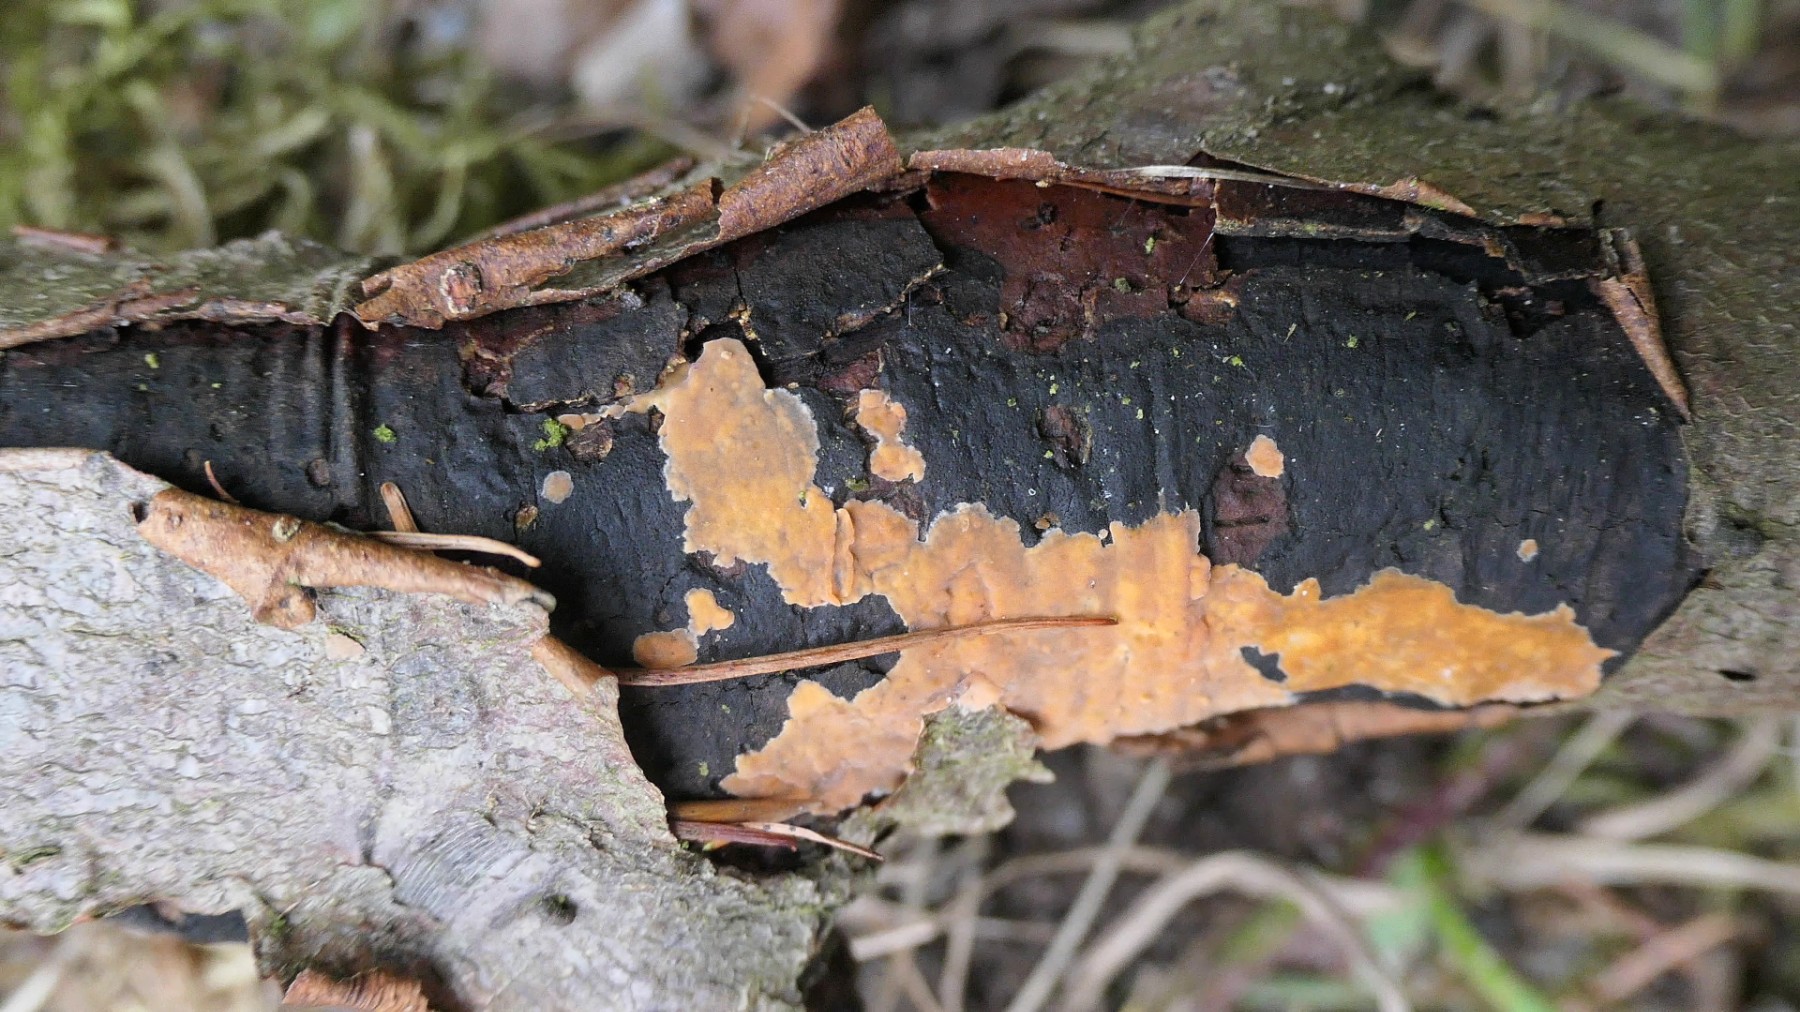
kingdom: Fungi
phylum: Basidiomycota
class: Agaricomycetes
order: Russulales
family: Peniophoraceae
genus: Peniophora
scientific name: Peniophora incarnata
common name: laksefarvet voksskind
